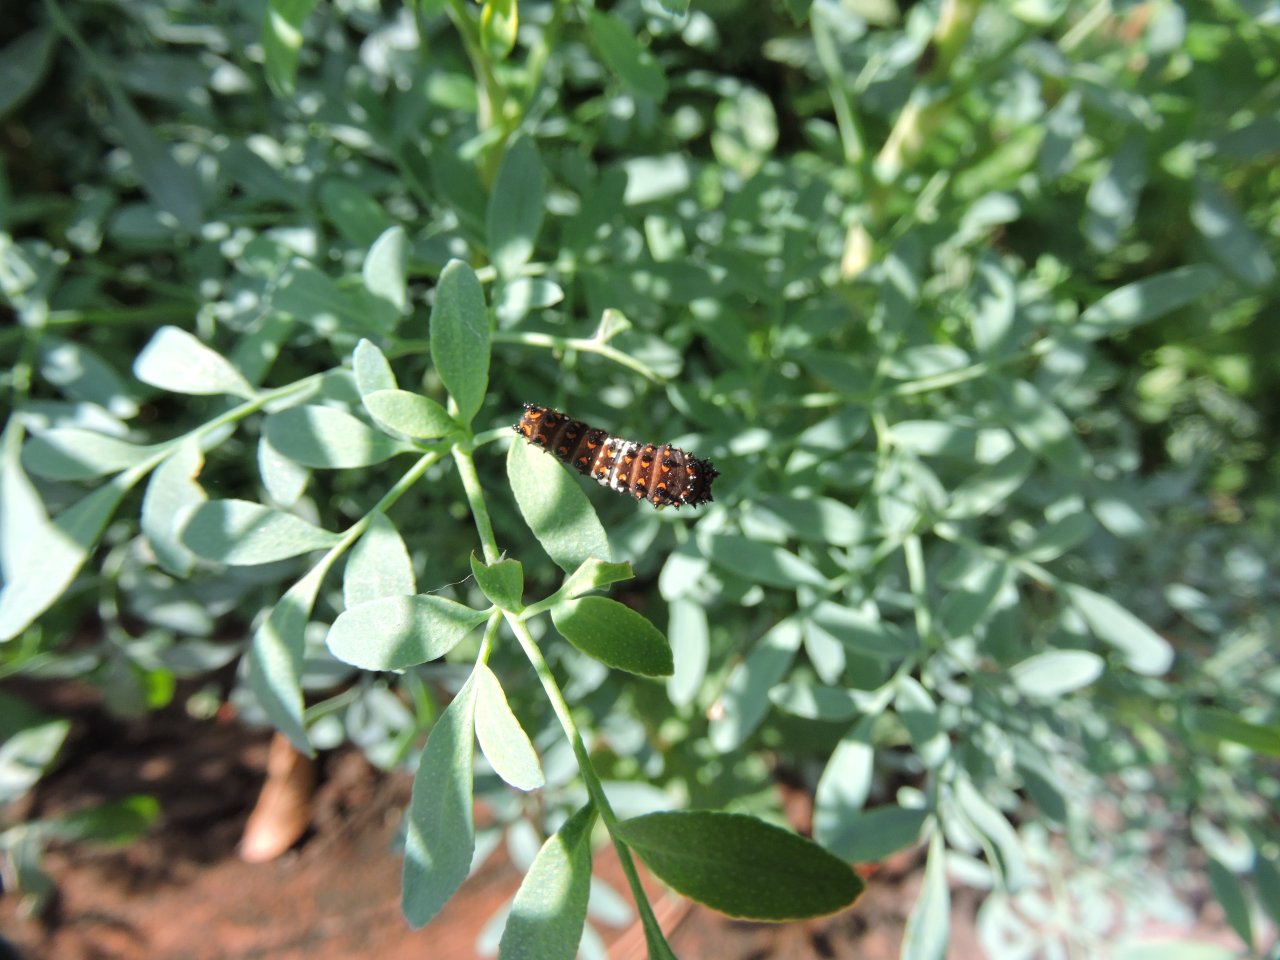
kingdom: Animalia
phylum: Arthropoda
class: Insecta
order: Lepidoptera
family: Papilionidae
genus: Papilio
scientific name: Papilio polyxenes
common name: Black Swallowtail
